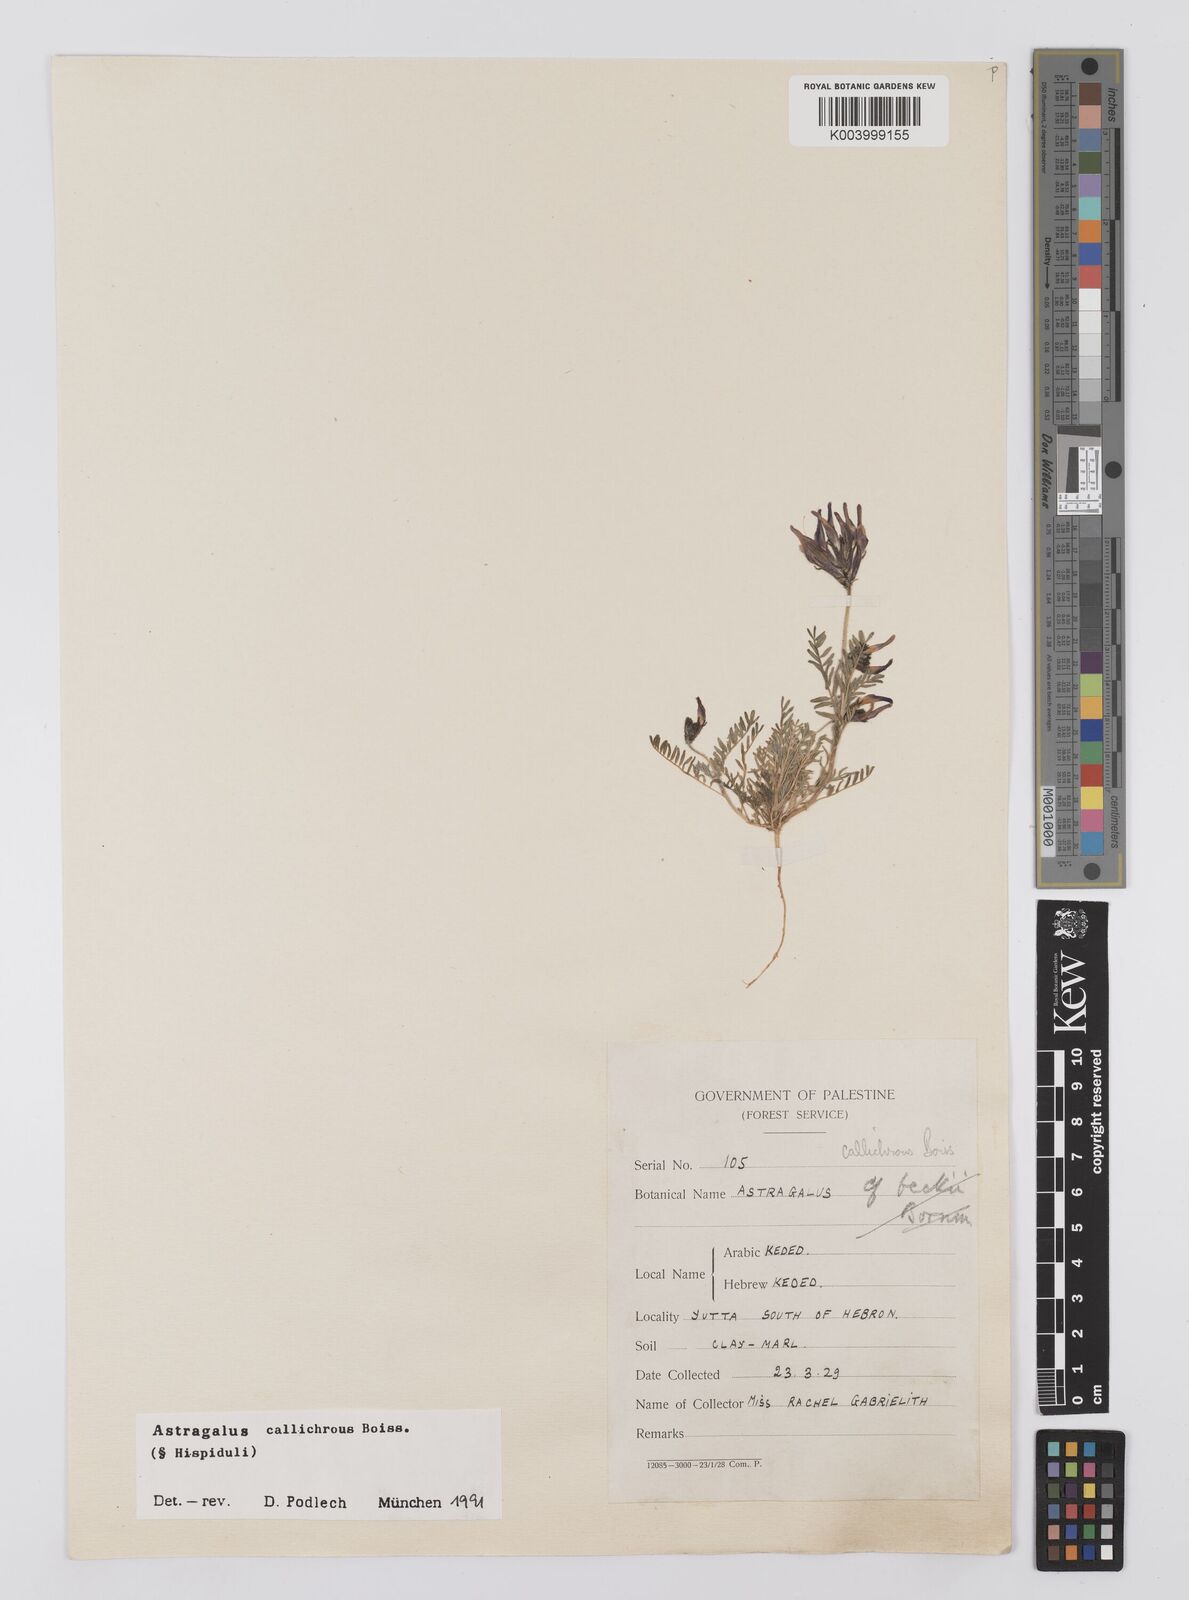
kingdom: Plantae
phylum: Tracheophyta
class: Magnoliopsida
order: Fabales
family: Fabaceae
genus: Astragalus
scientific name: Astragalus callichrous
